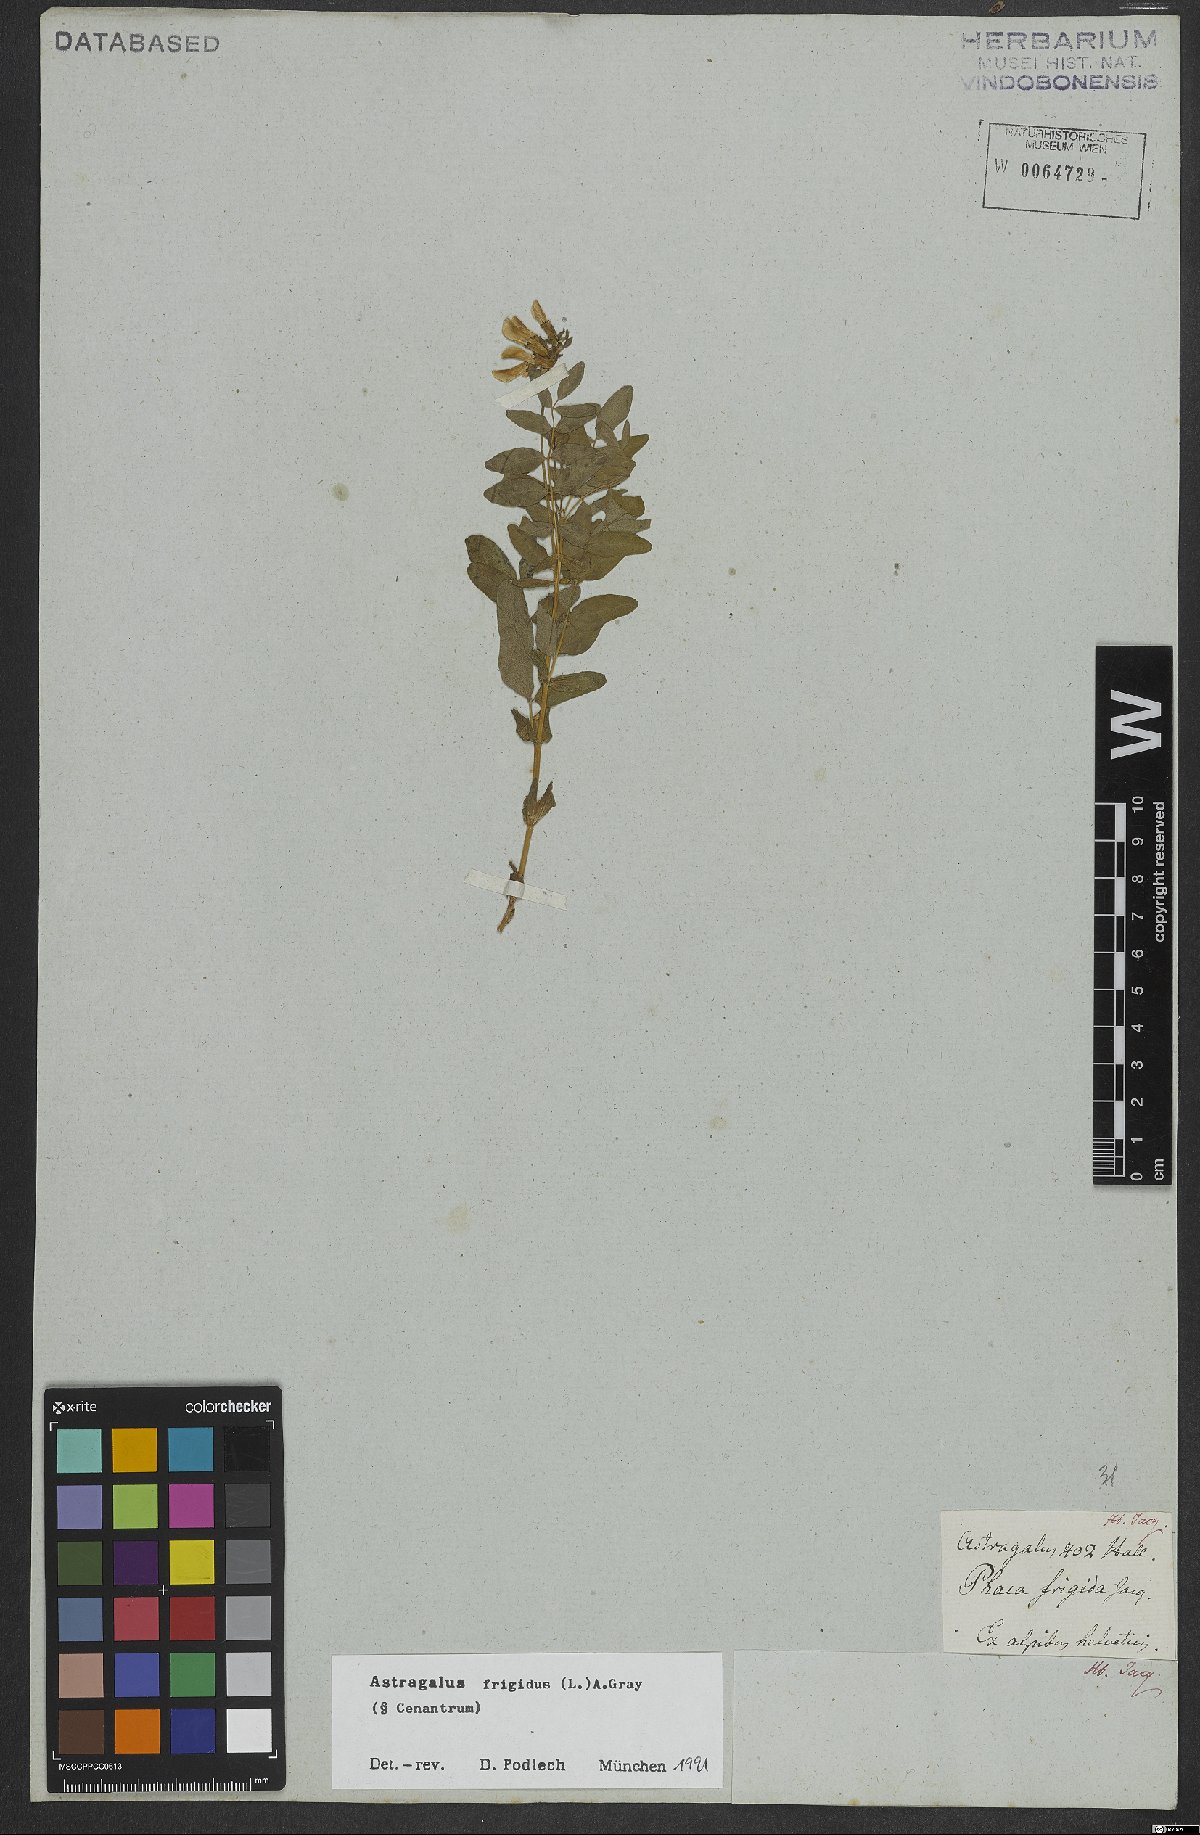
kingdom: Plantae
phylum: Tracheophyta
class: Magnoliopsida
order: Fabales
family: Fabaceae
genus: Astragalus
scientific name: Astragalus frigidus
